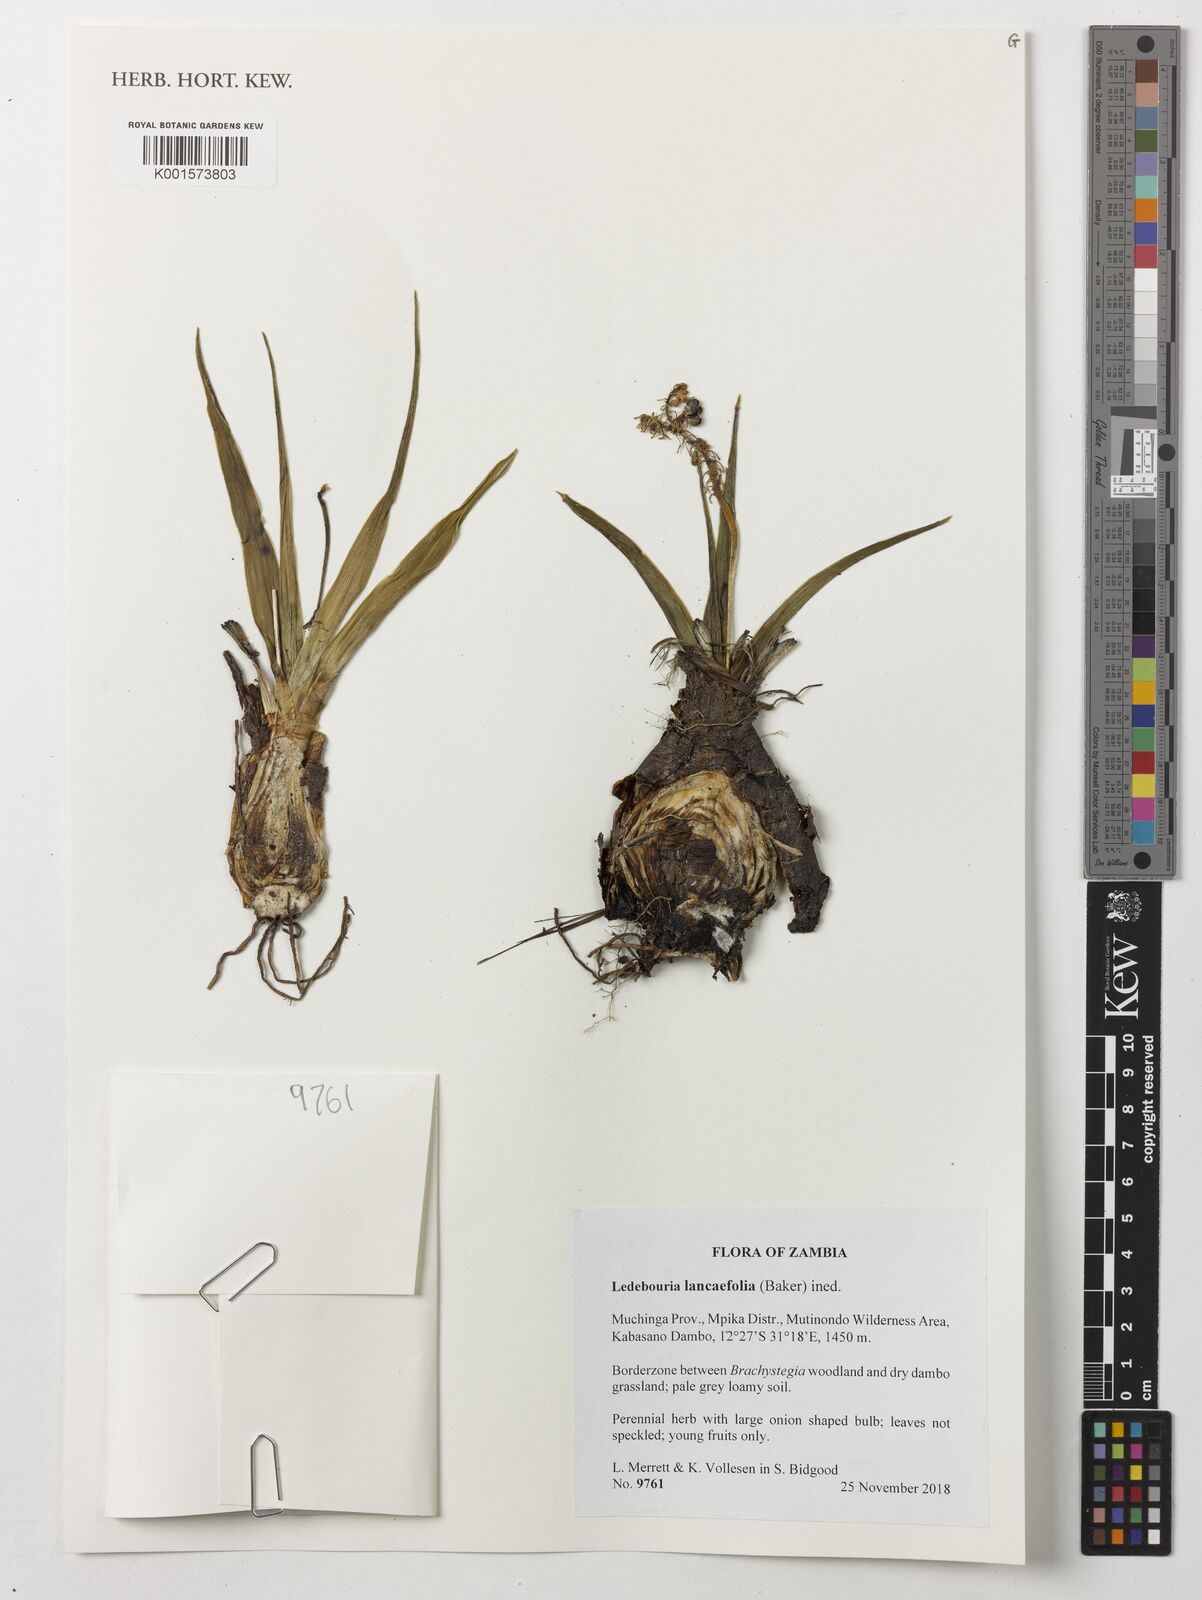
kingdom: Plantae
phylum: Tracheophyta
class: Liliopsida
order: Asparagales
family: Asparagaceae
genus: Ledebouria
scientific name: Ledebouria
